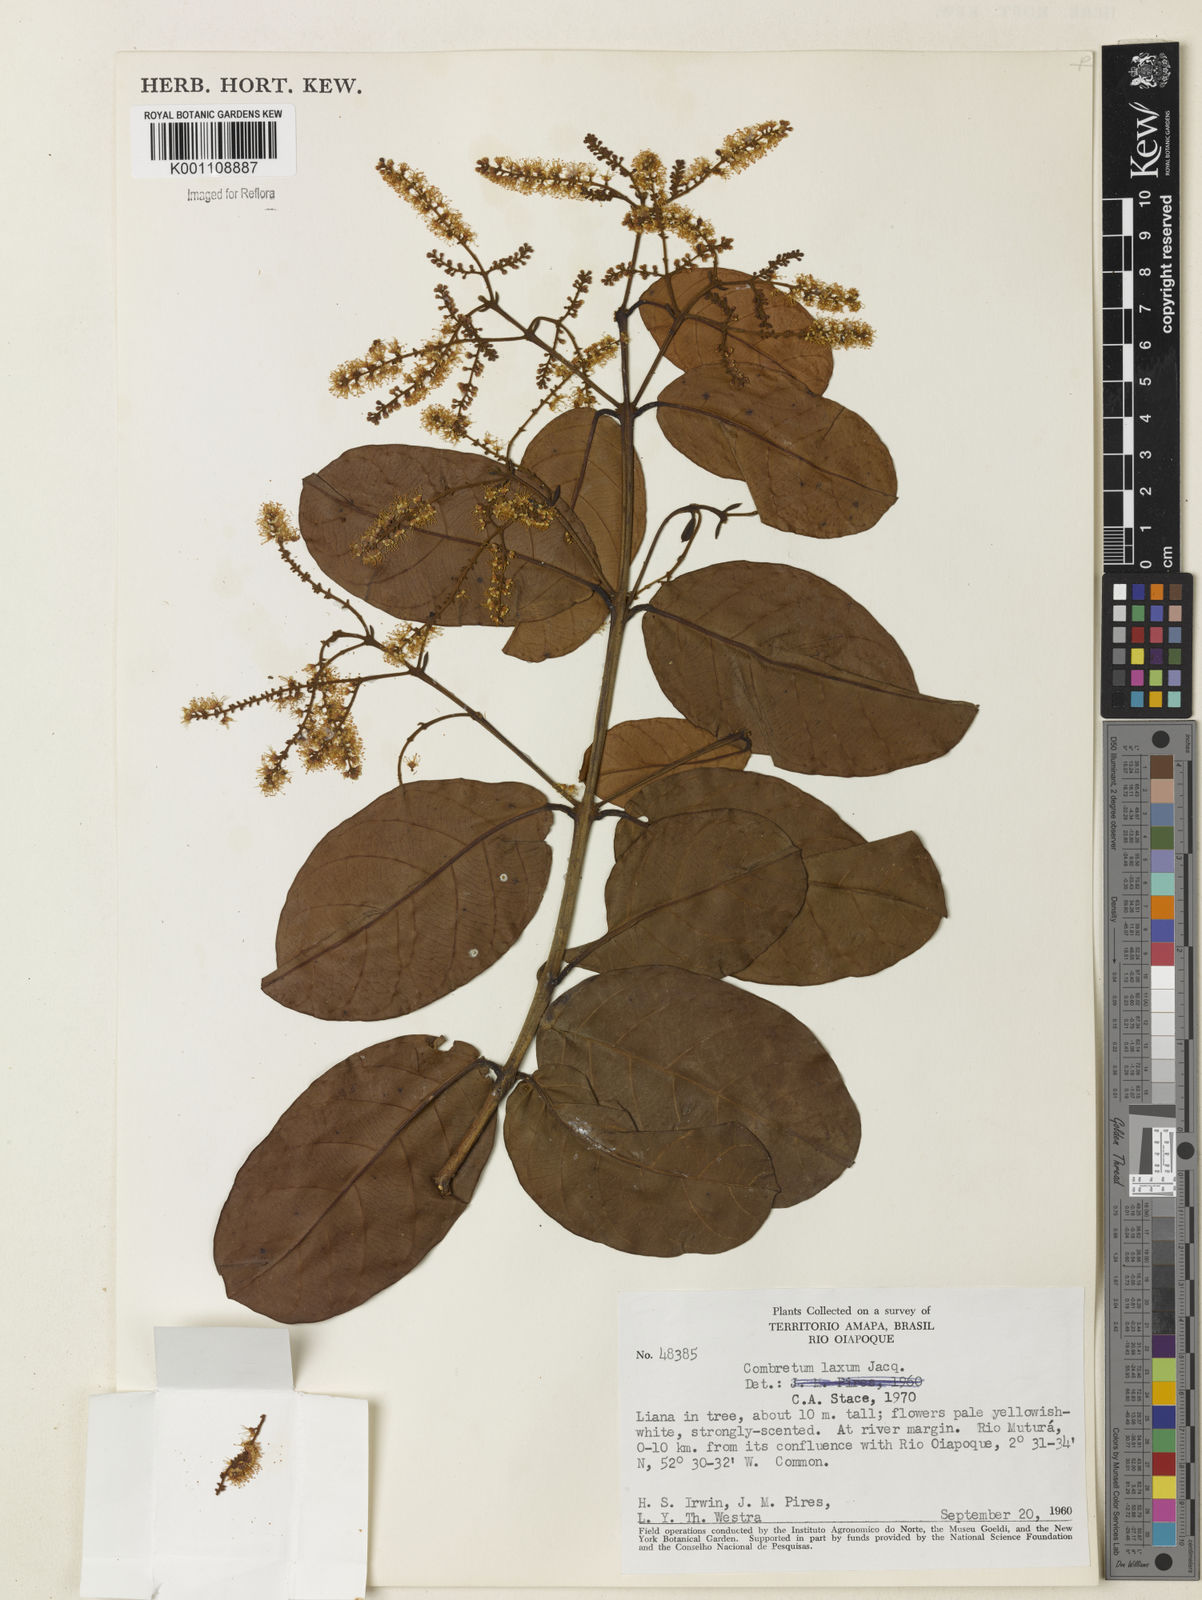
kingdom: Plantae
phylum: Tracheophyta
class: Magnoliopsida
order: Myrtales
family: Combretaceae
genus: Combretum
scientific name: Combretum laxum
